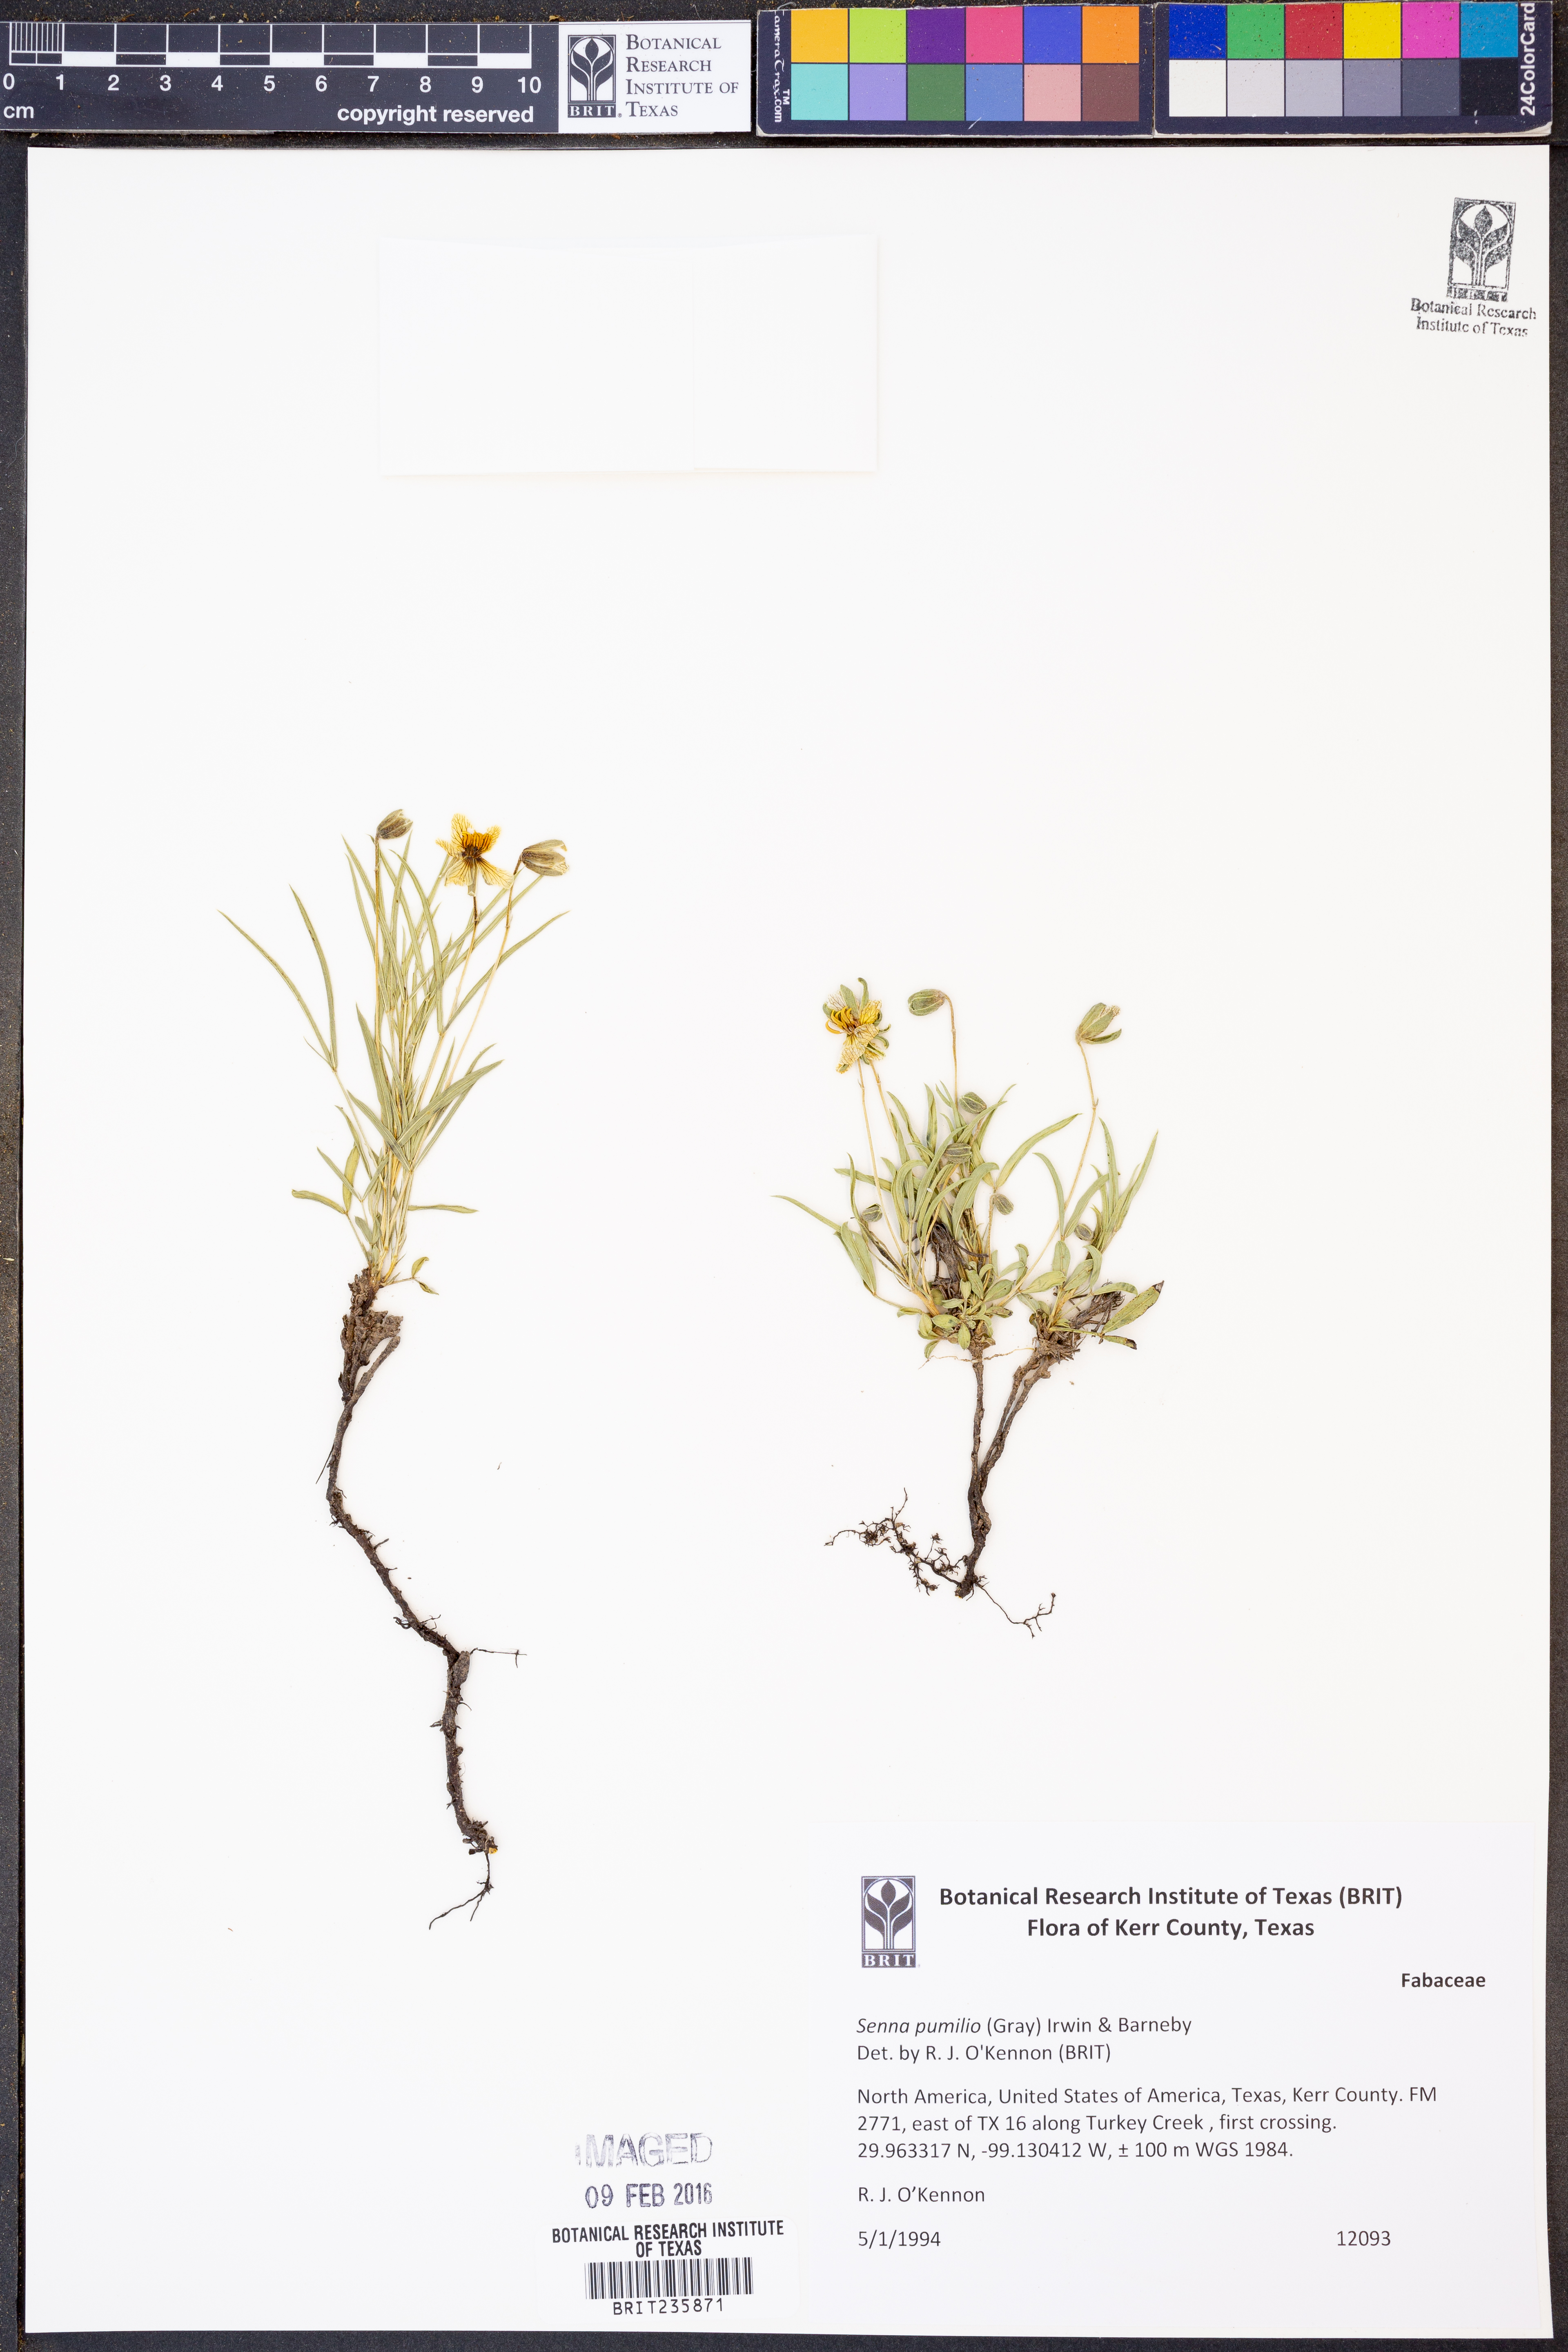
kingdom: Plantae
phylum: Tracheophyta
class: Magnoliopsida
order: Fabales
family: Fabaceae
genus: Senna
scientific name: Senna pumilio
